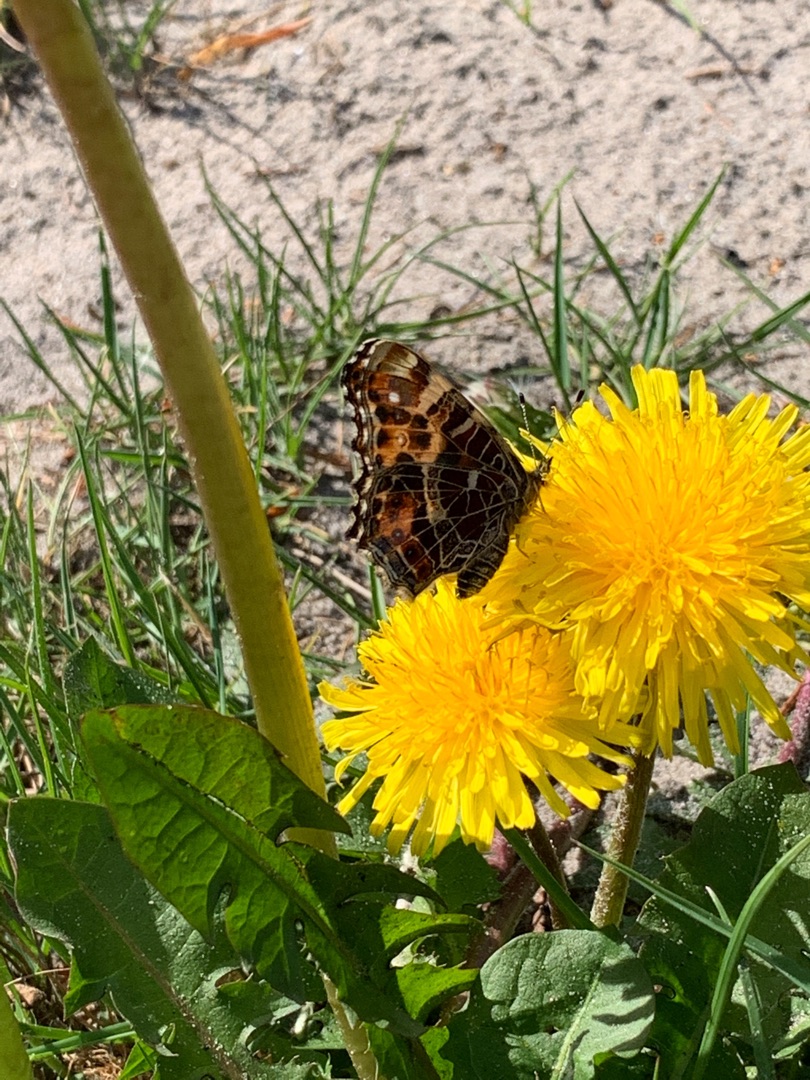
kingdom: Animalia
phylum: Arthropoda
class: Insecta
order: Lepidoptera
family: Nymphalidae
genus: Araschnia
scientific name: Araschnia levana
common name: Nældesommerfugl
